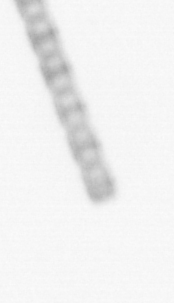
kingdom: Chromista
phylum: Ochrophyta
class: Bacillariophyceae
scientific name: Bacillariophyceae
